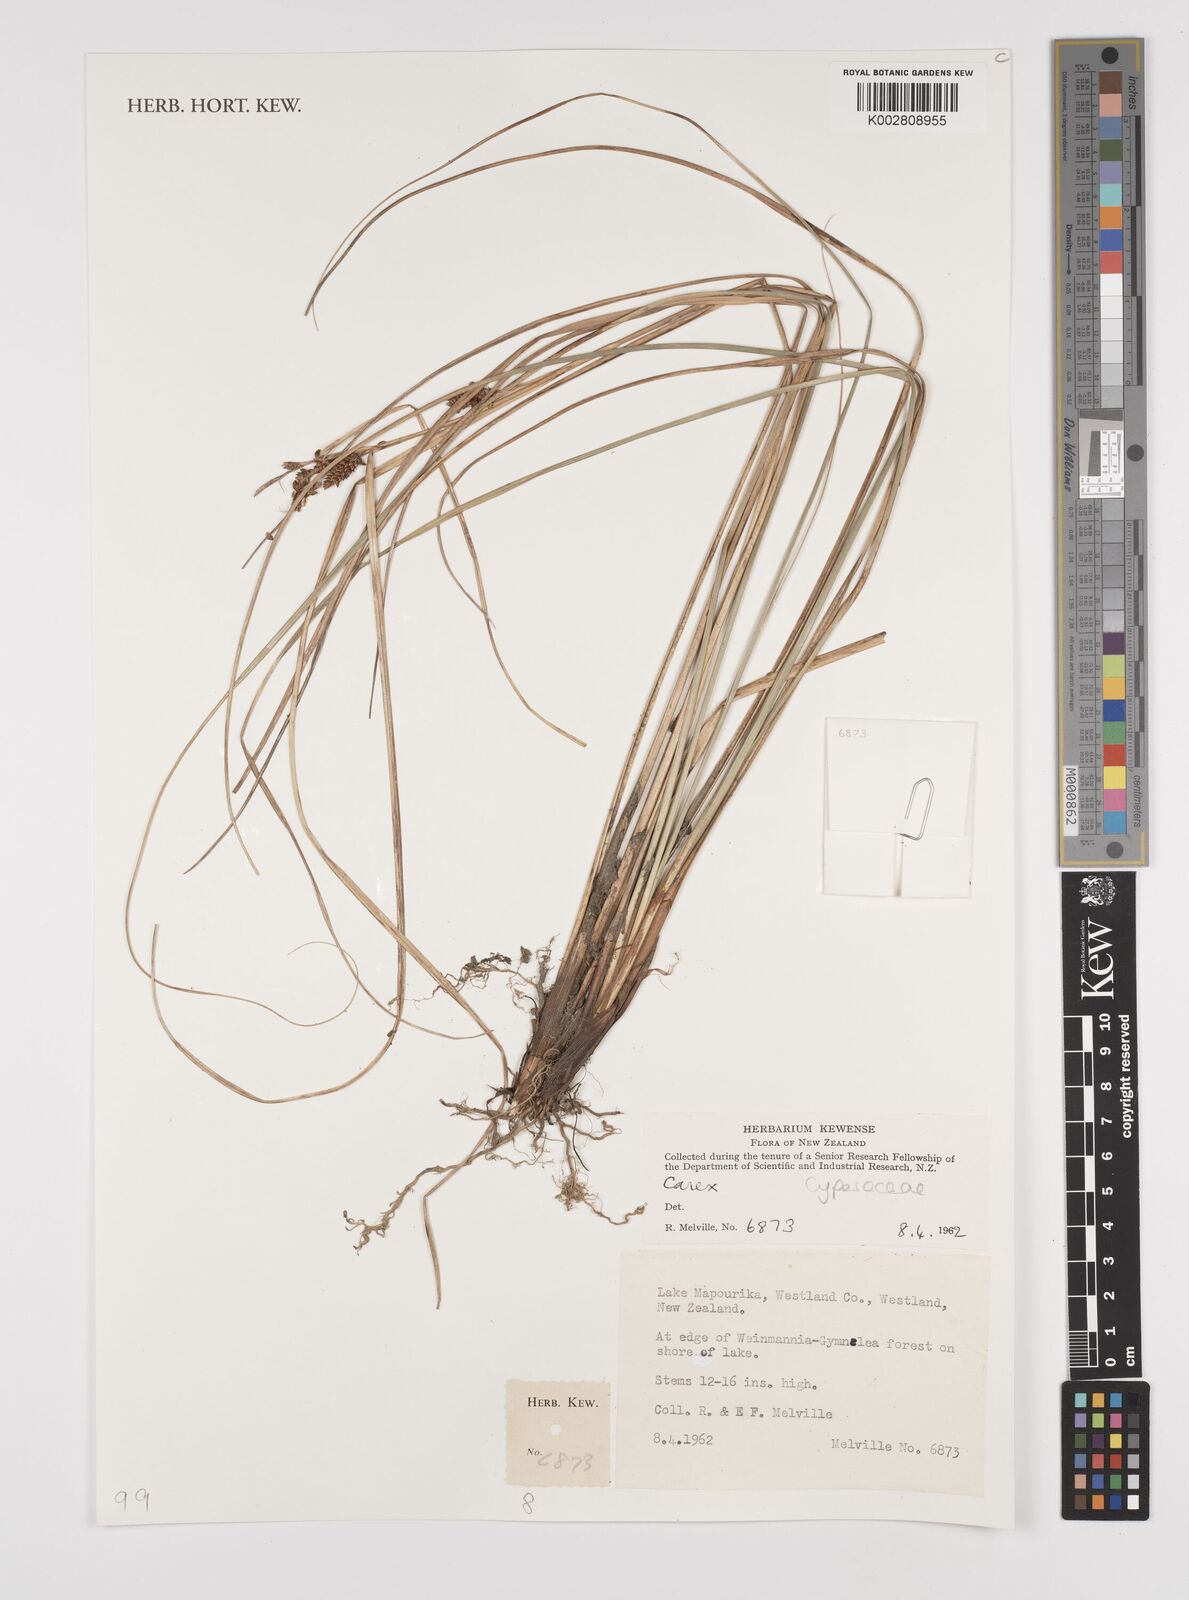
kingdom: Plantae
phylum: Tracheophyta
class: Liliopsida
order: Poales
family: Cyperaceae
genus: Carex
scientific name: Carex
